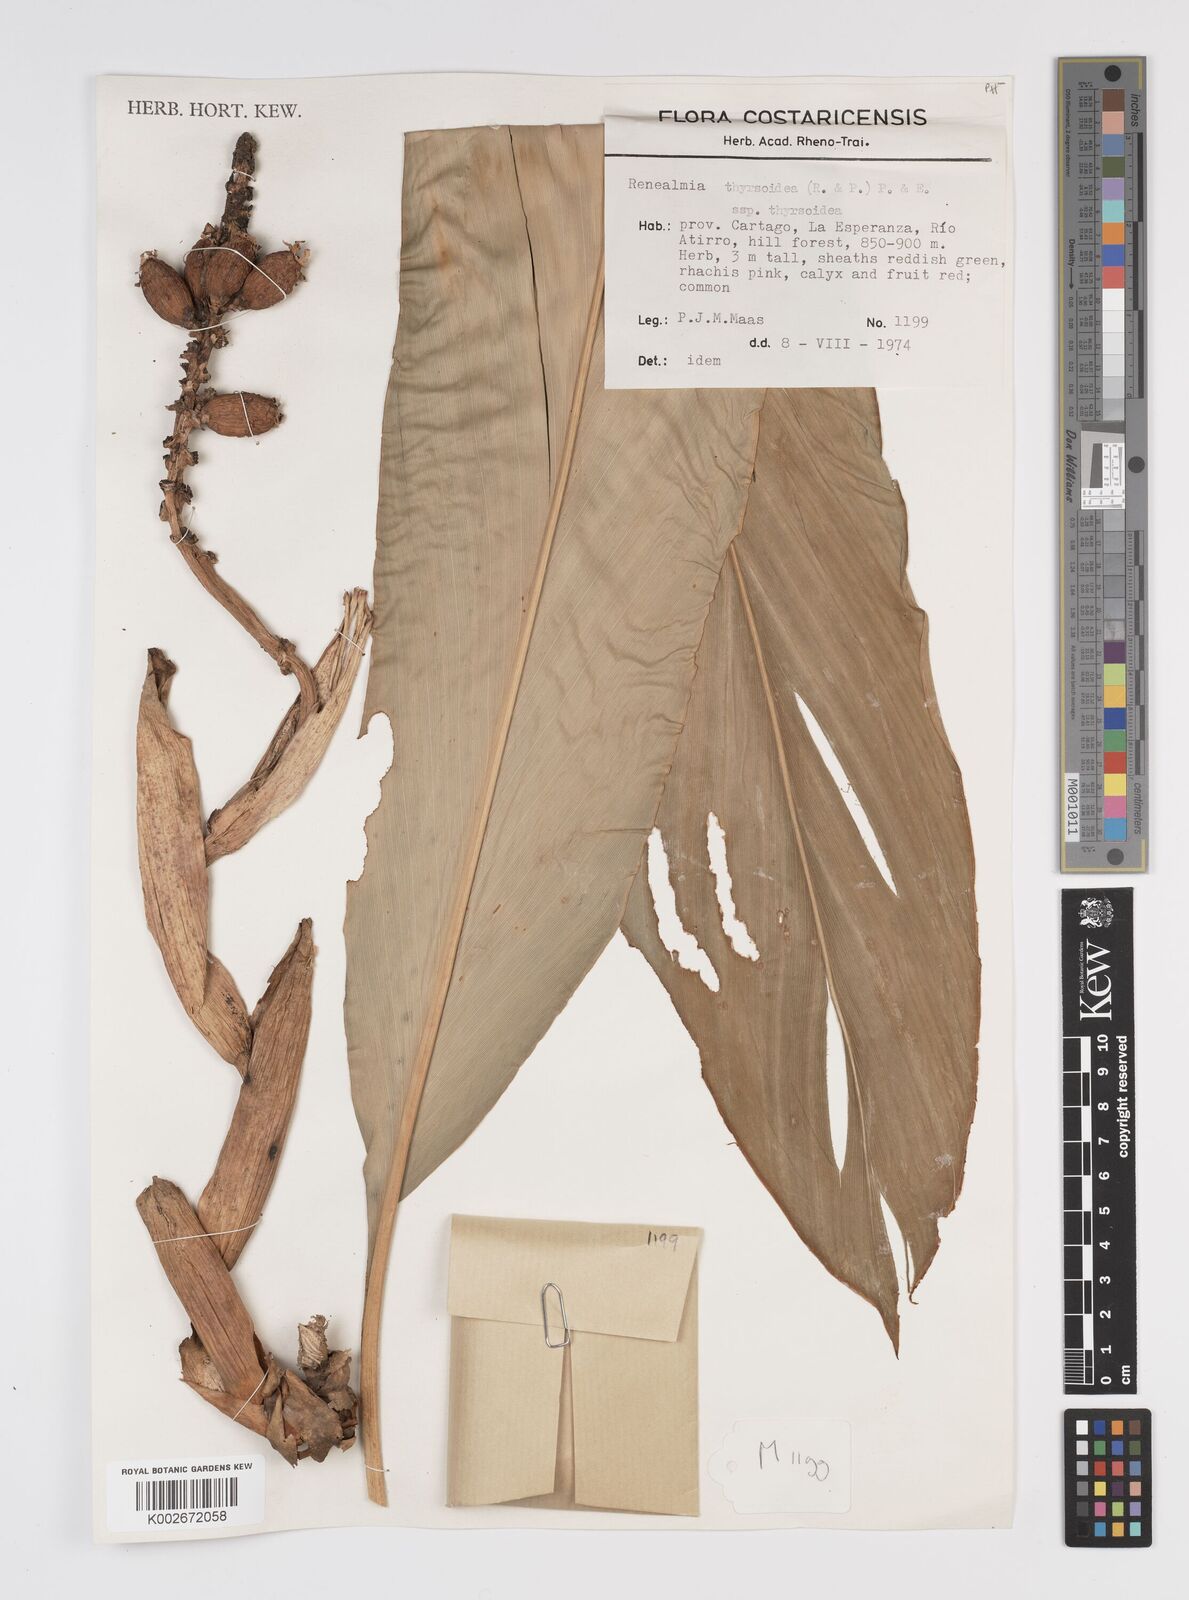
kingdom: Plantae
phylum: Tracheophyta
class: Liliopsida
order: Zingiberales
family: Zingiberaceae
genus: Renealmia
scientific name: Renealmia thyrsoidea
